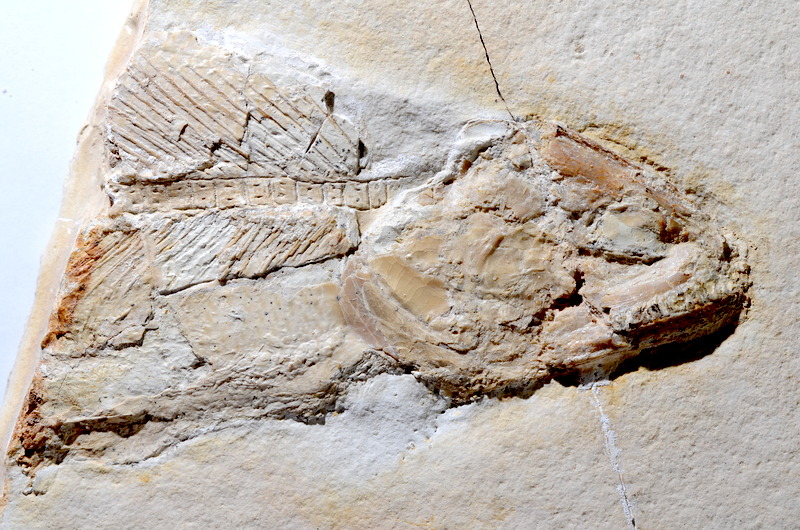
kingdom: Animalia
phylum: Chordata
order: Amiiformes
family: Ionoscopidae
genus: Ionoscopus
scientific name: Ionoscopus
